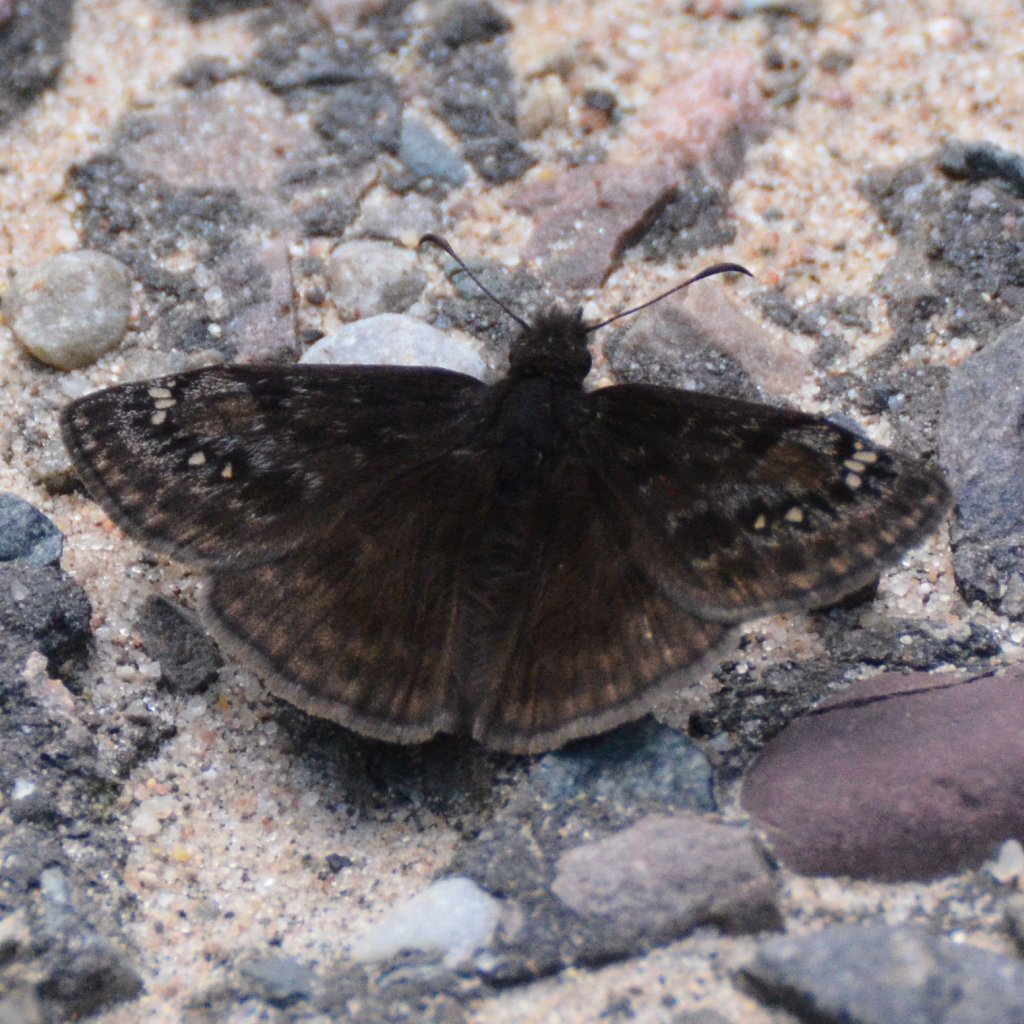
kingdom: Animalia
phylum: Arthropoda
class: Insecta
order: Lepidoptera
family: Hesperiidae
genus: Erynnis
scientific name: Erynnis
